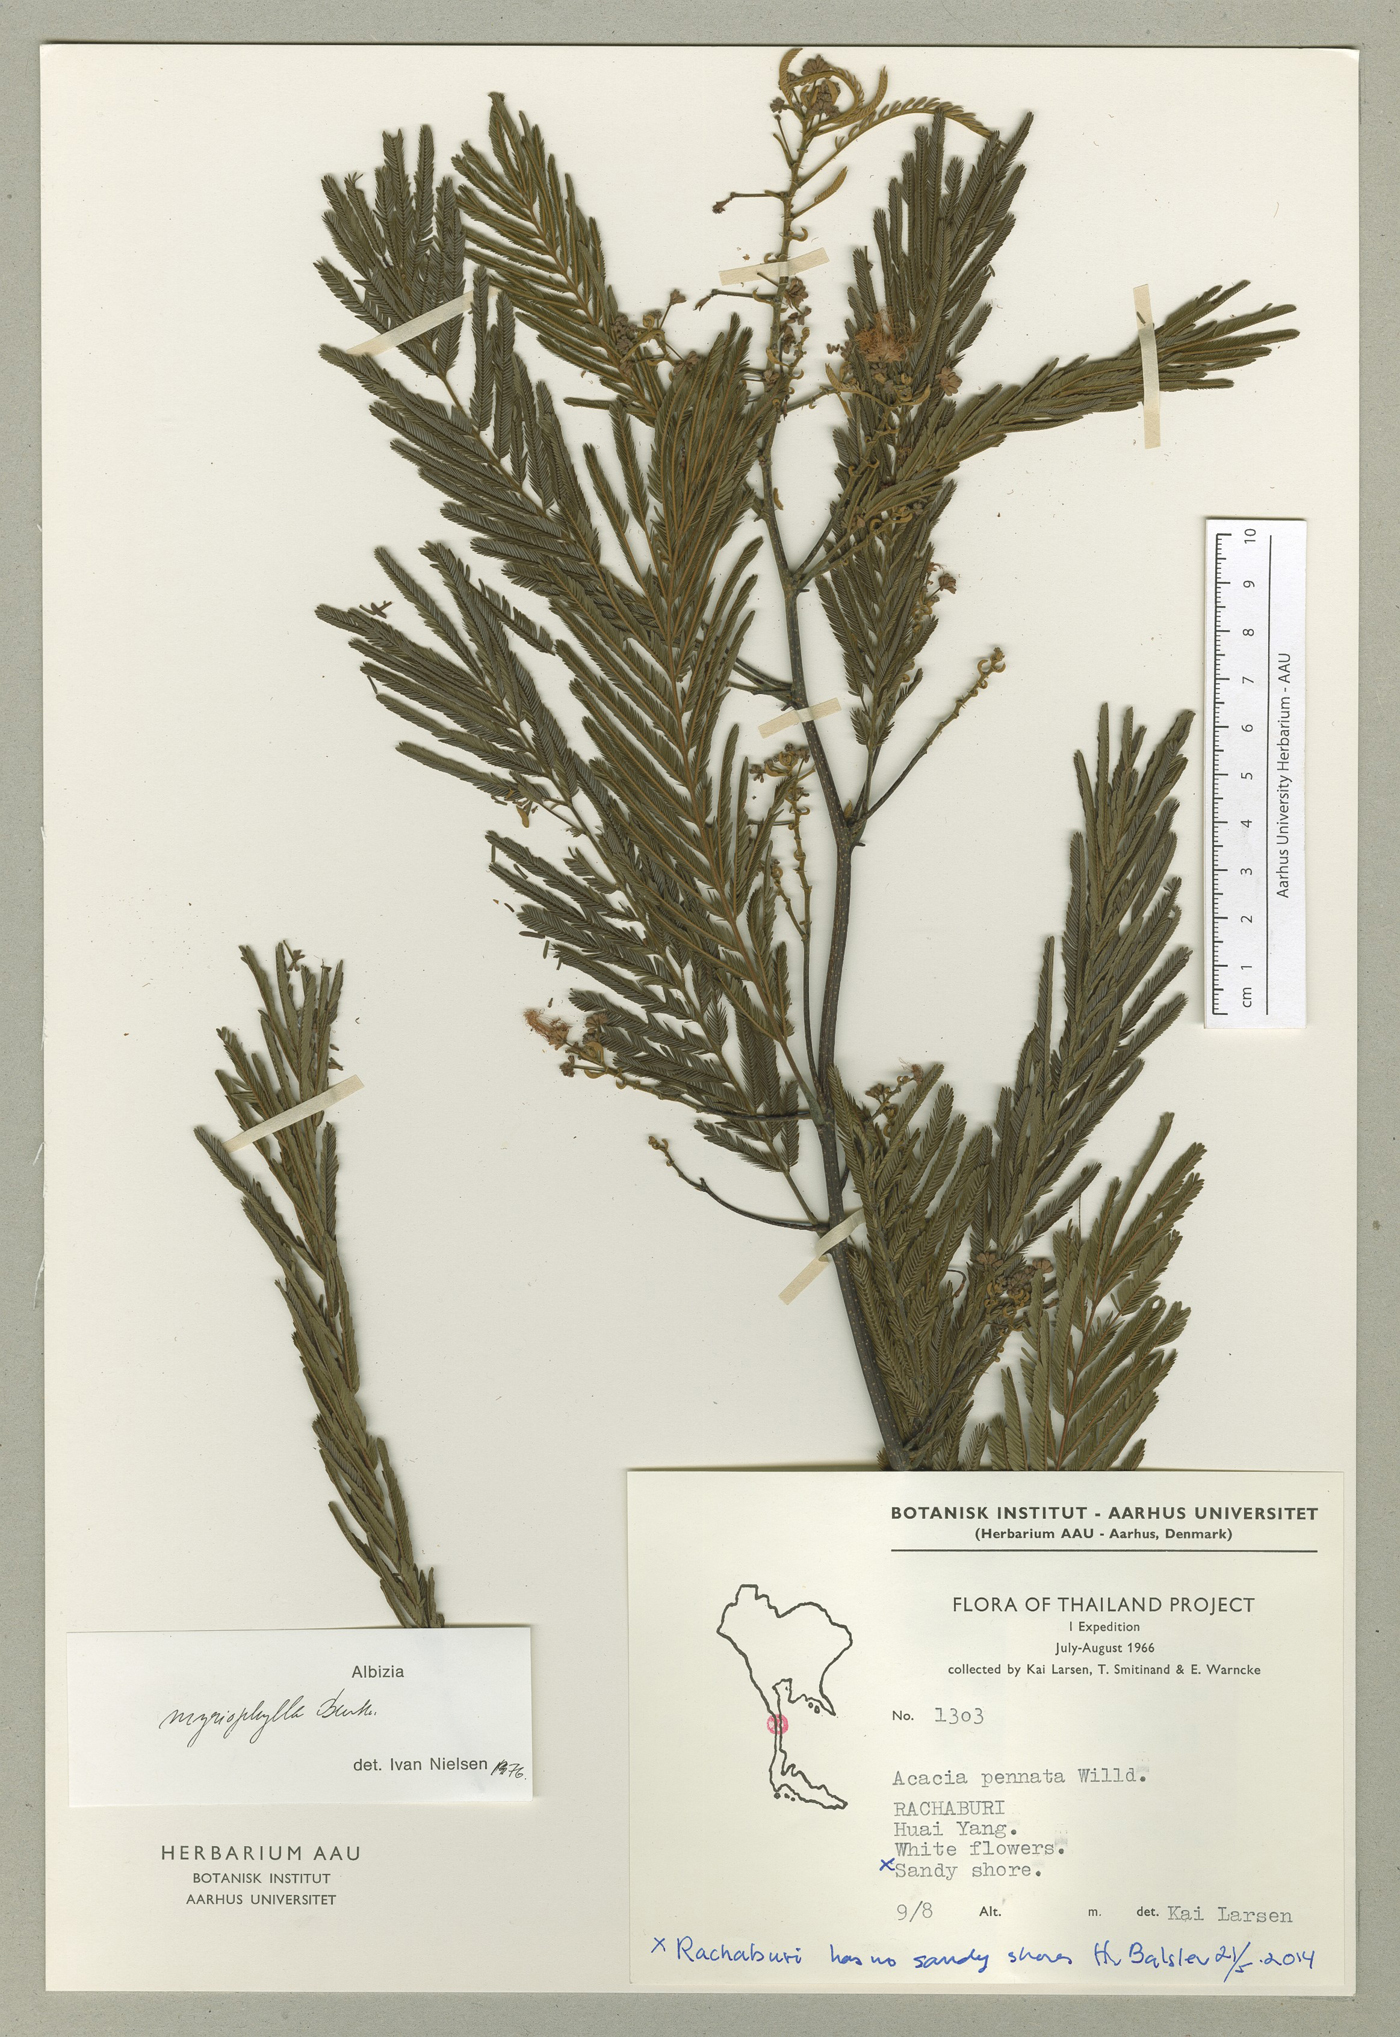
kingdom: Plantae
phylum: Tracheophyta
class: Magnoliopsida
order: Fabales
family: Fabaceae
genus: Albizia
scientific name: Albizia myriophylla
